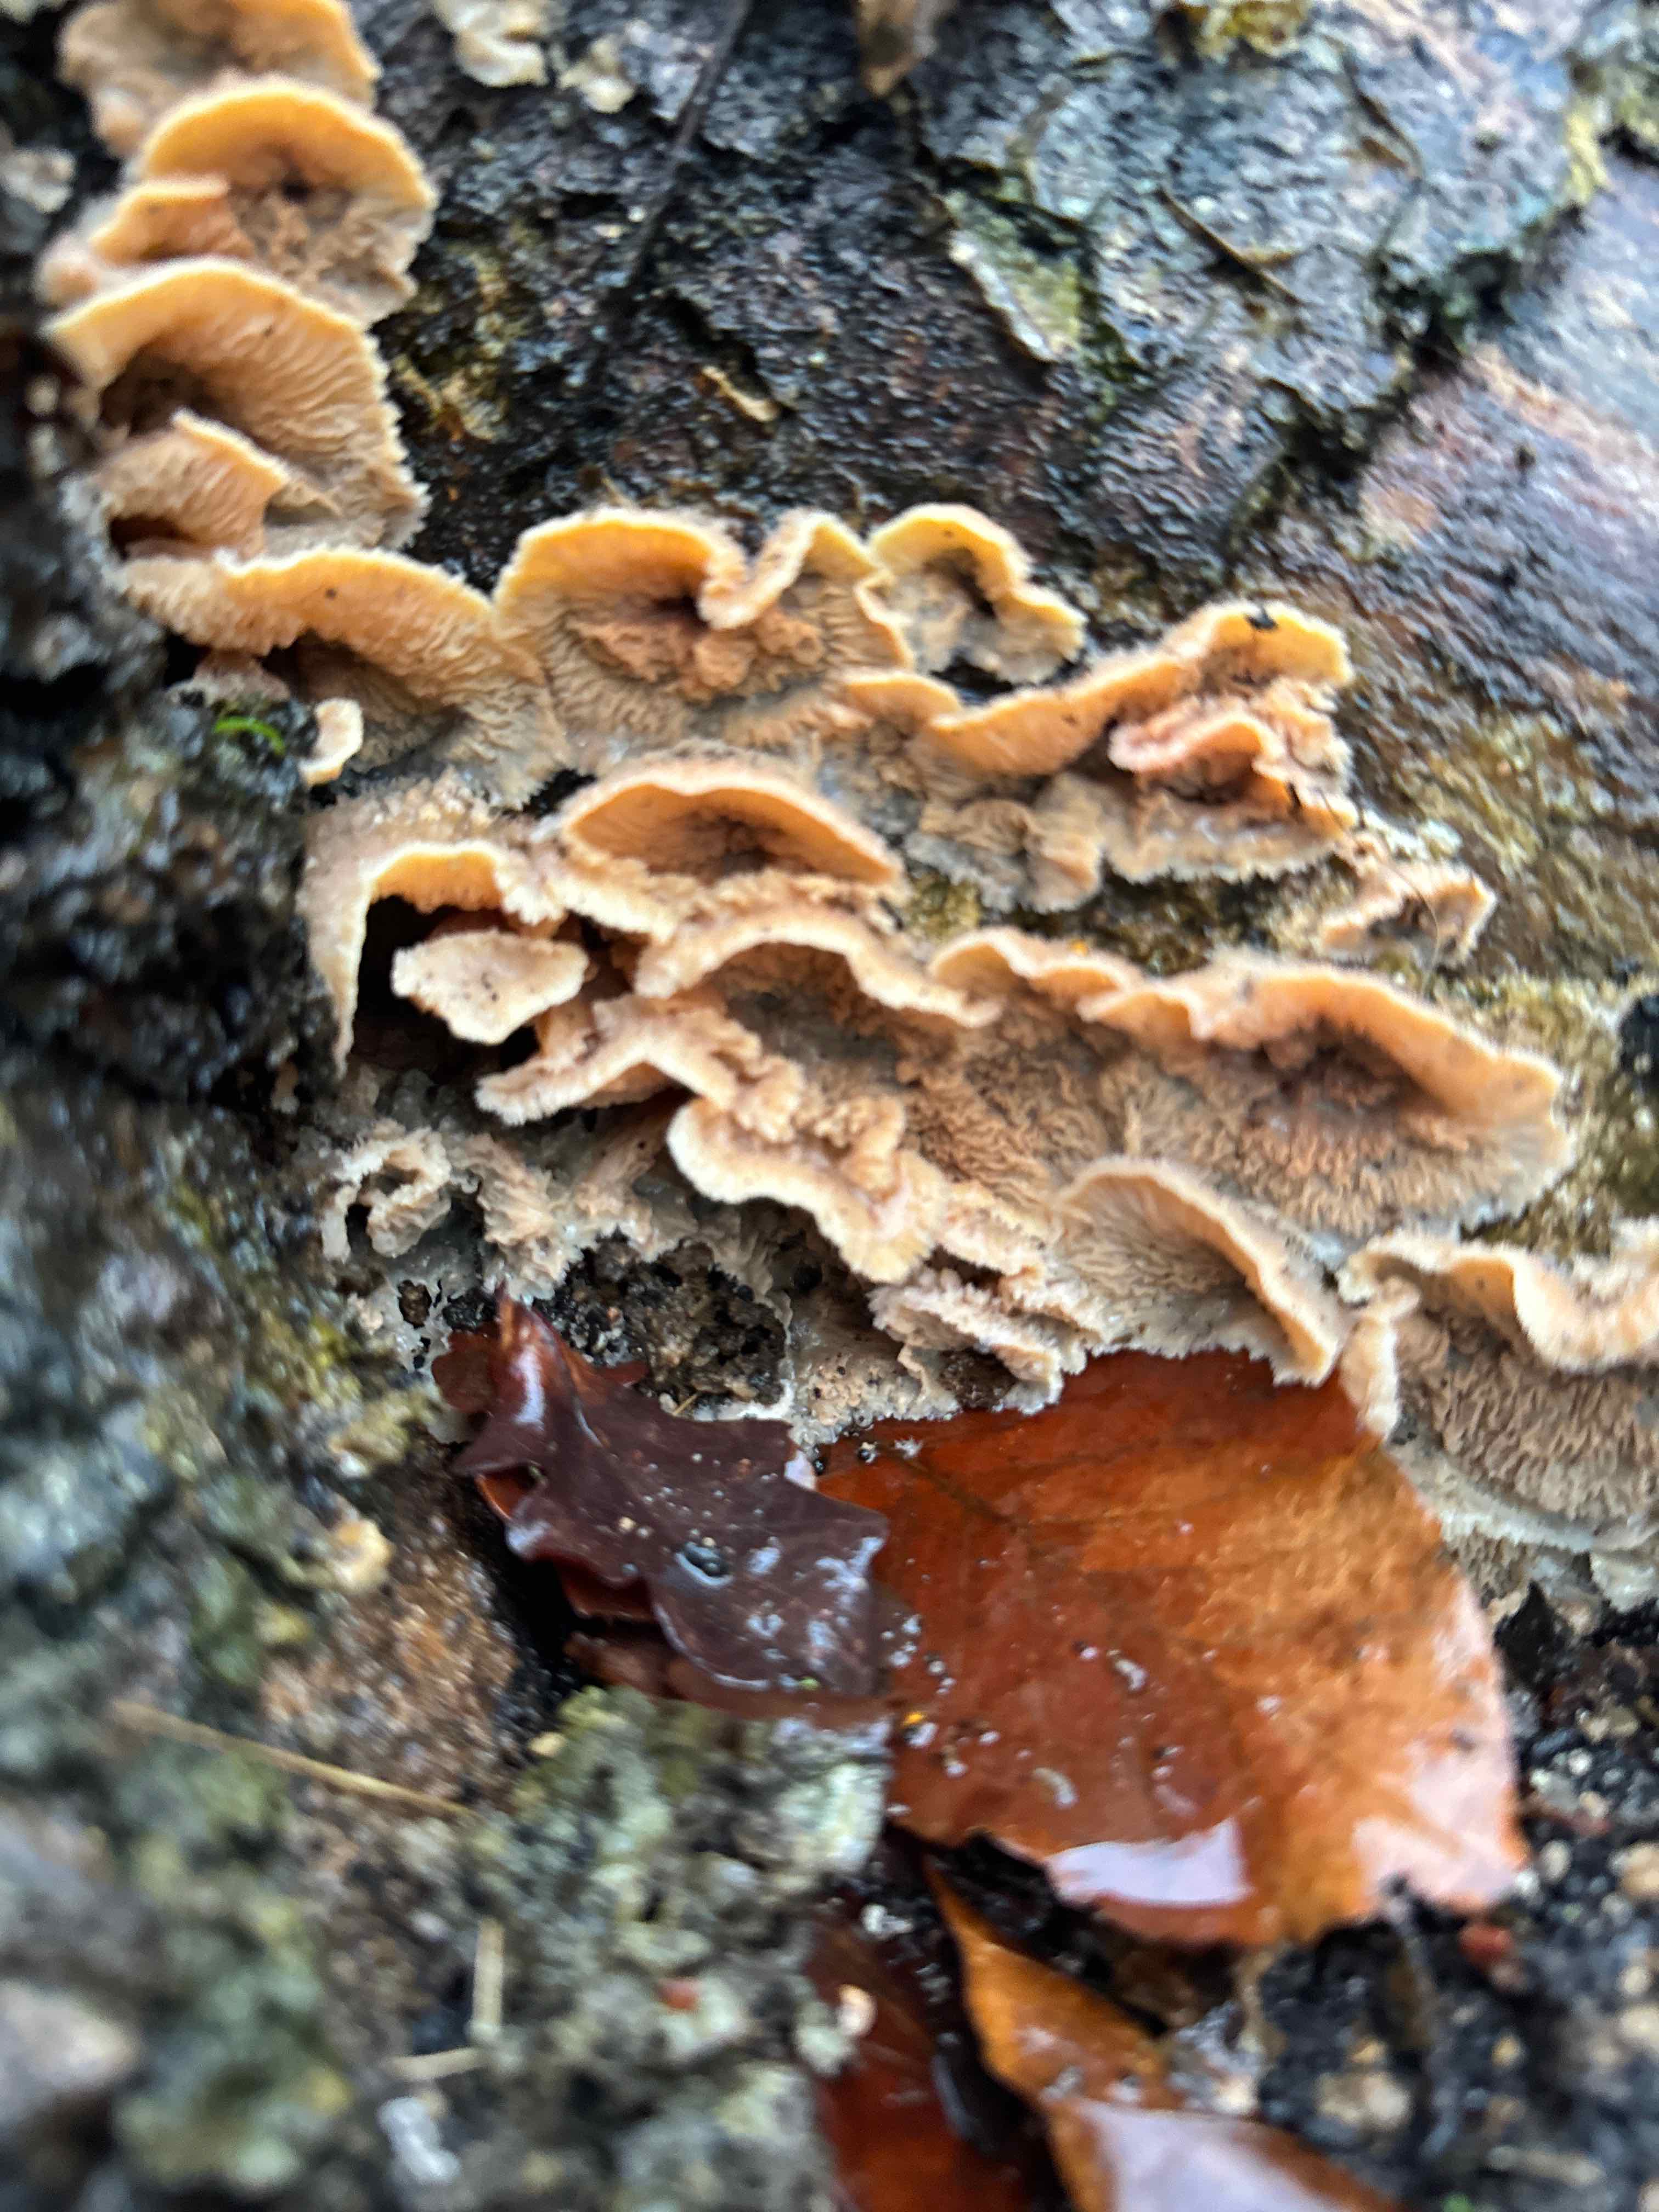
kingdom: Fungi
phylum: Basidiomycota
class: Agaricomycetes
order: Polyporales
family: Meruliaceae
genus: Phlebia
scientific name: Phlebia tremellosa
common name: bævrende åresvamp
